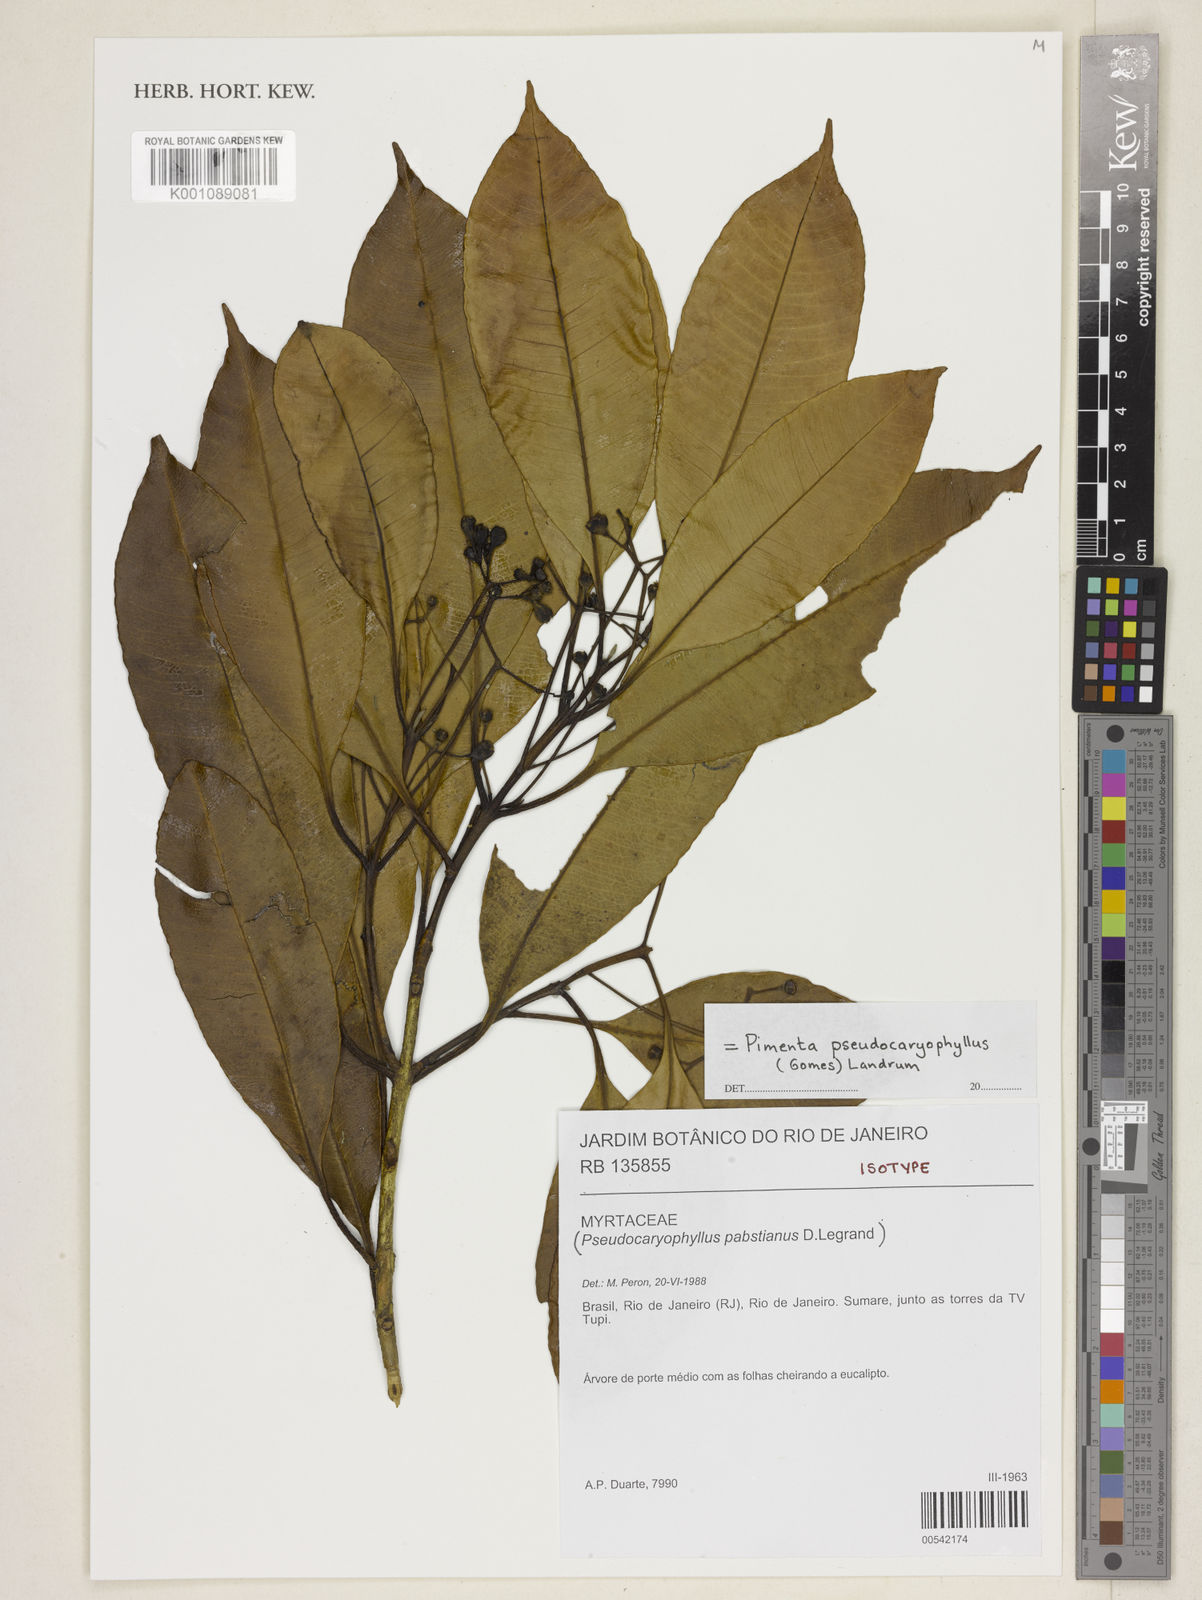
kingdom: Plantae
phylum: Tracheophyta
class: Magnoliopsida
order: Myrtales
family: Myrtaceae
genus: Pimenta
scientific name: Pimenta pseudocaryophyllus
